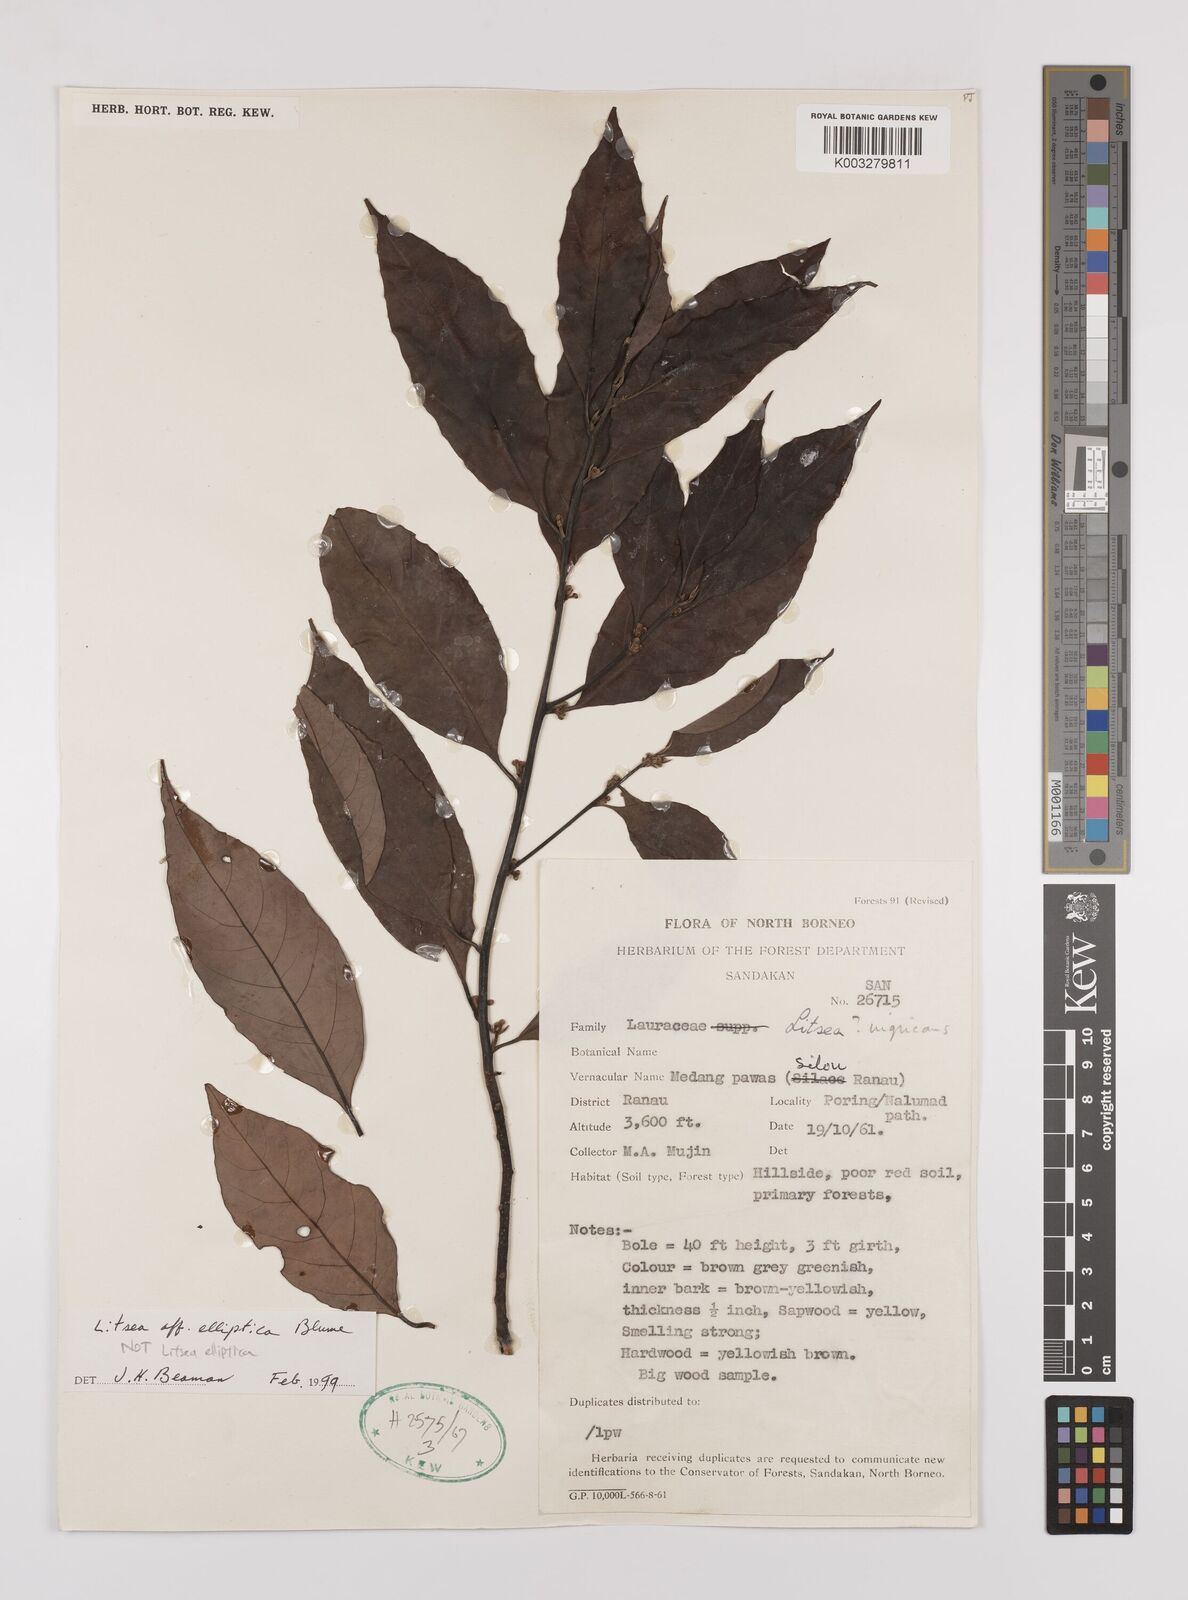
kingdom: Plantae
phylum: Tracheophyta
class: Magnoliopsida
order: Laurales
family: Lauraceae
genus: Litsea
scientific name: Litsea elliptica
